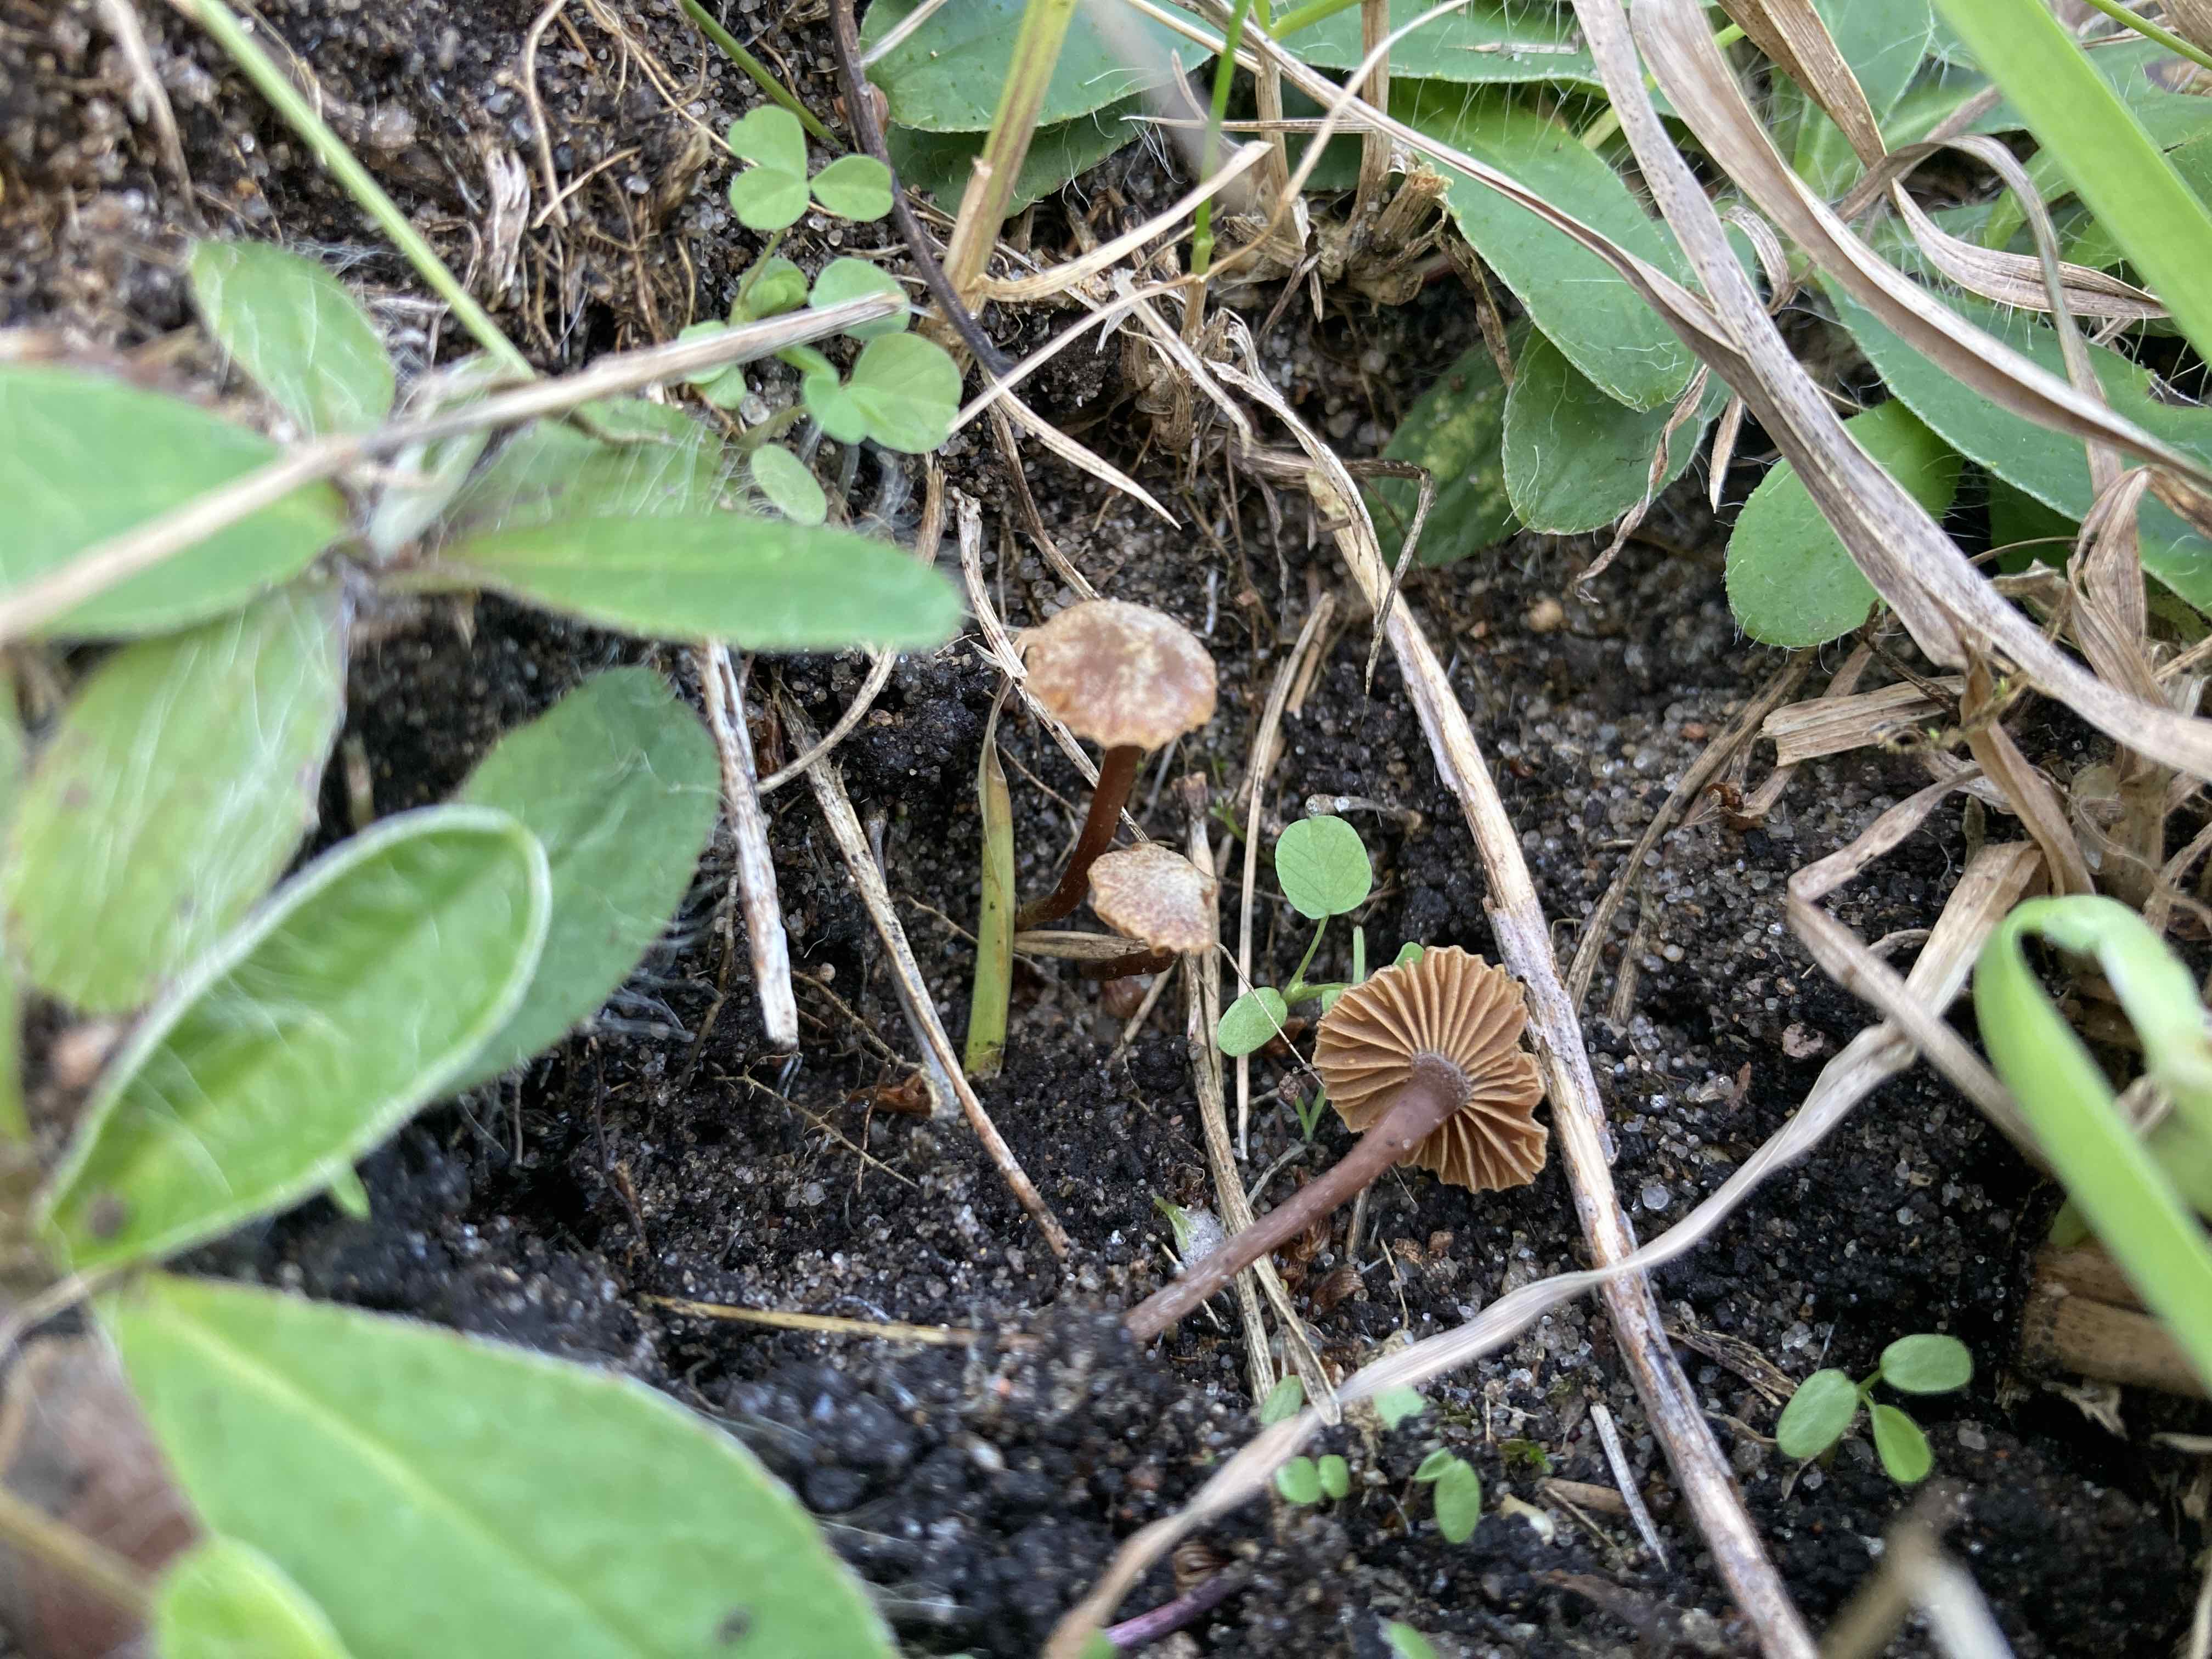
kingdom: Fungi
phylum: Basidiomycota
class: Agaricomycetes
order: Agaricales
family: Crassisporiaceae
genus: Romagnesiella
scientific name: Romagnesiella clavus
